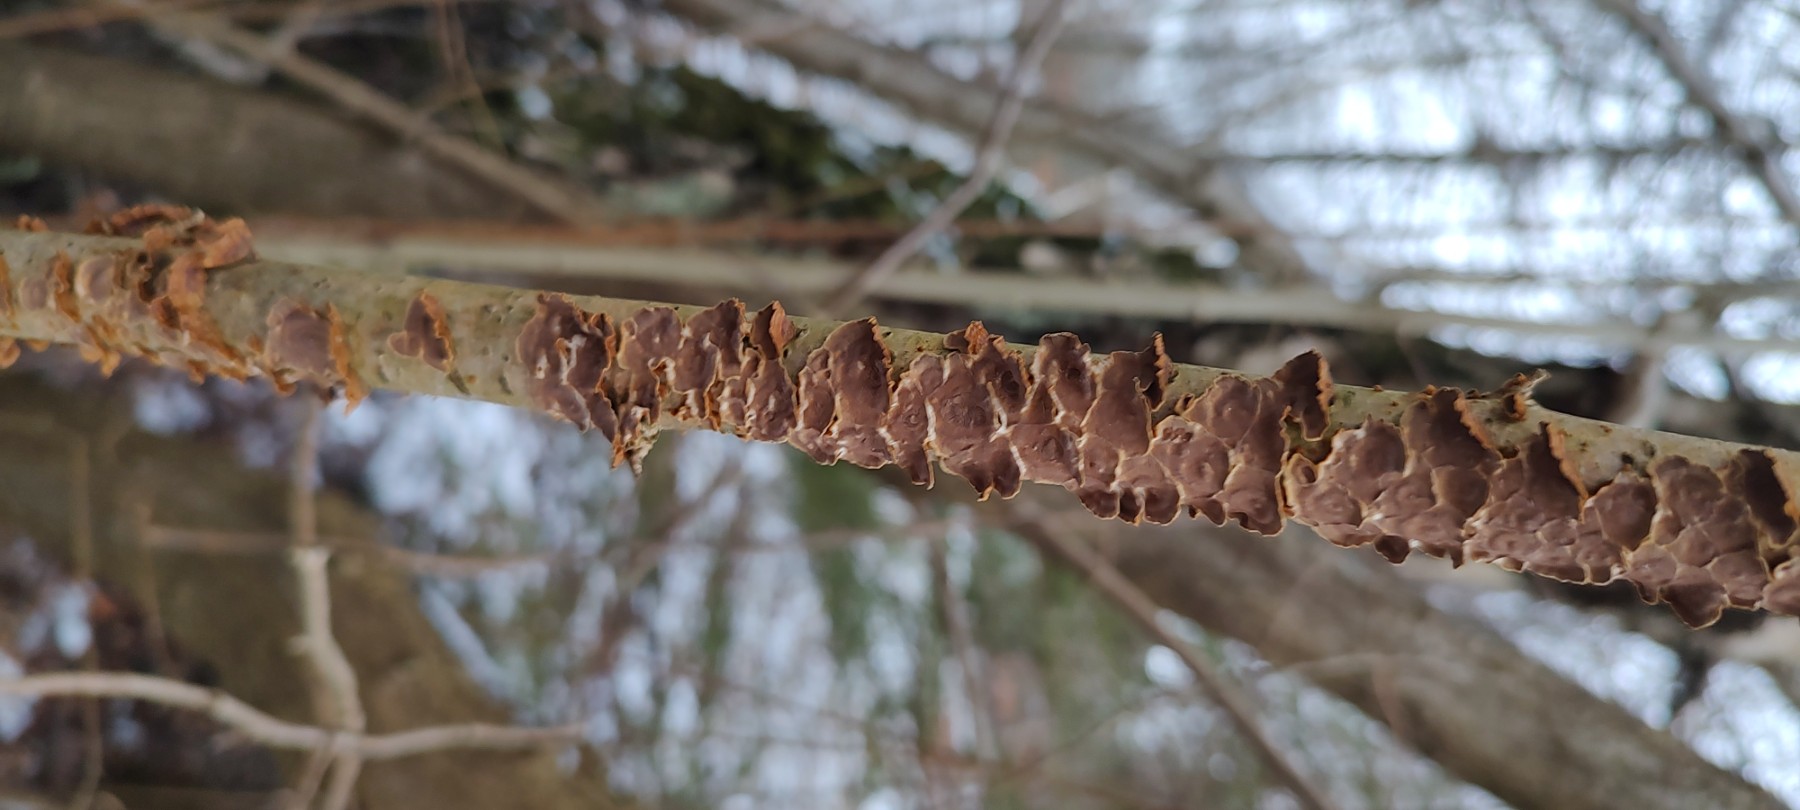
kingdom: Fungi
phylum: Basidiomycota
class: Agaricomycetes
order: Hymenochaetales
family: Hymenochaetaceae
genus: Hydnoporia
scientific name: Hydnoporia tabacina
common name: tobaksbrun ruslædersvamp
